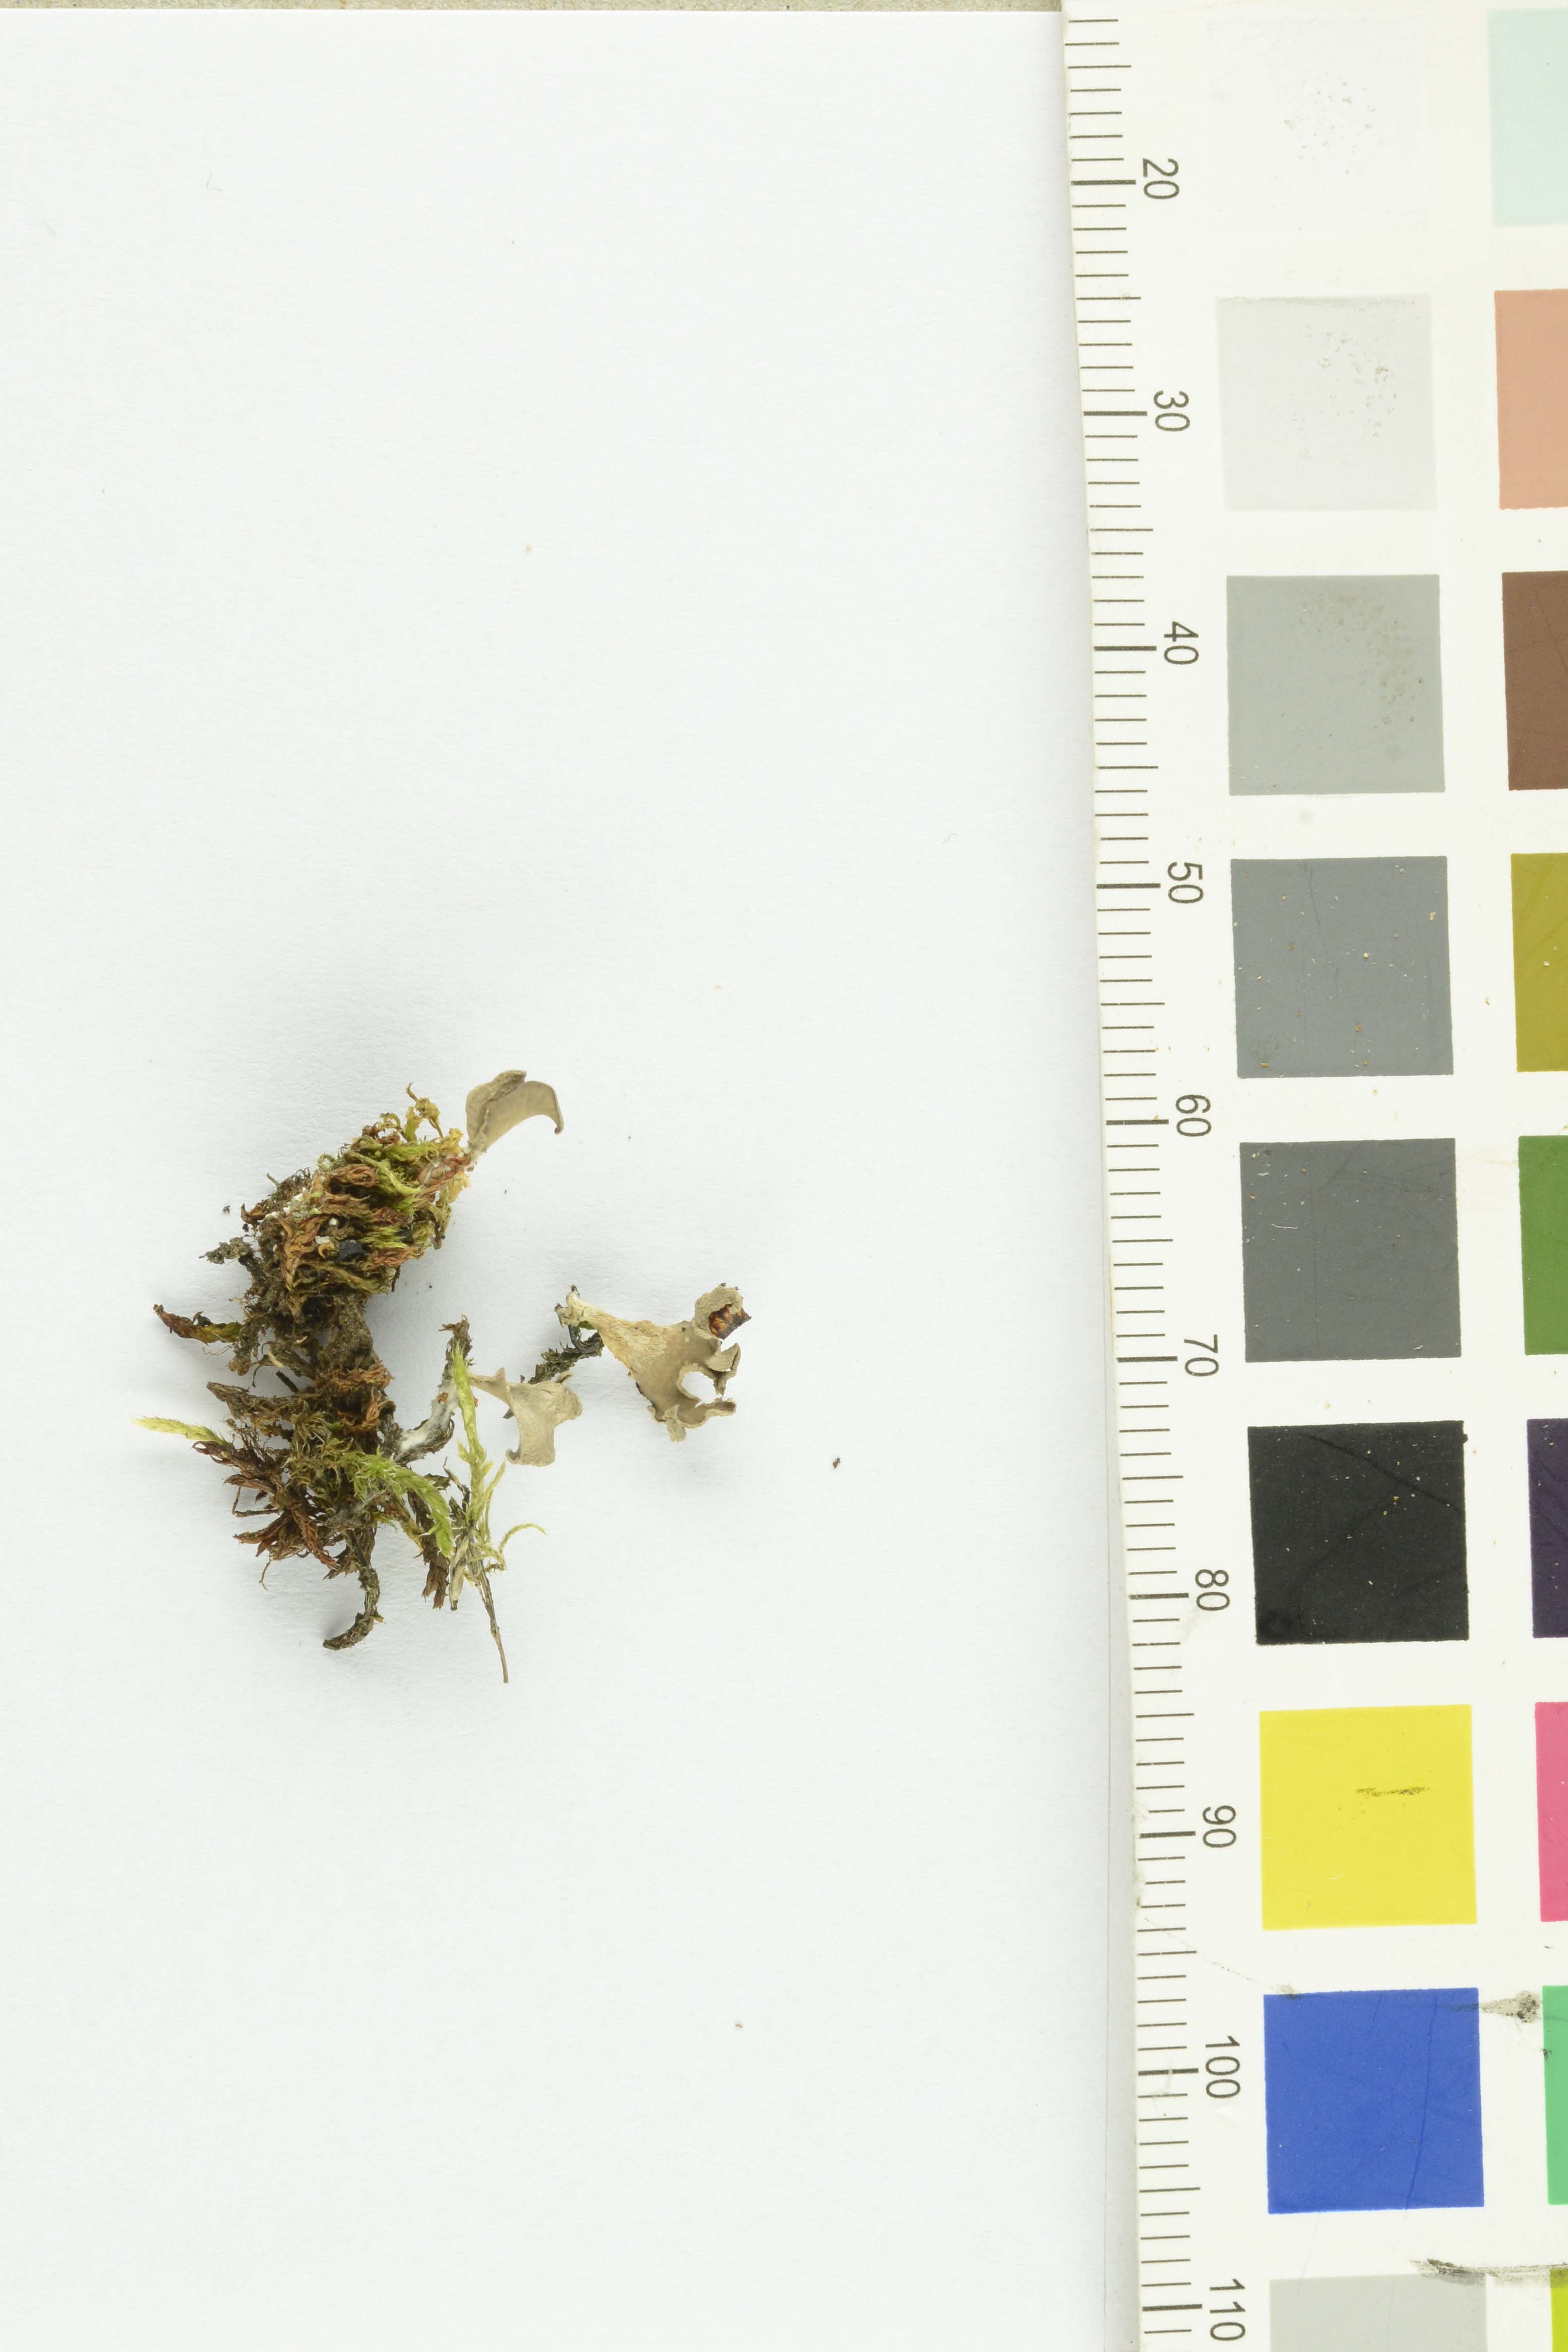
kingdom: Fungi
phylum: Basidiomycota
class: Agaricomycetes
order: Agaricales
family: Hygrophoraceae
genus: Arrhenia
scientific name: Arrhenia spathulata
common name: Spatulate oysterling
